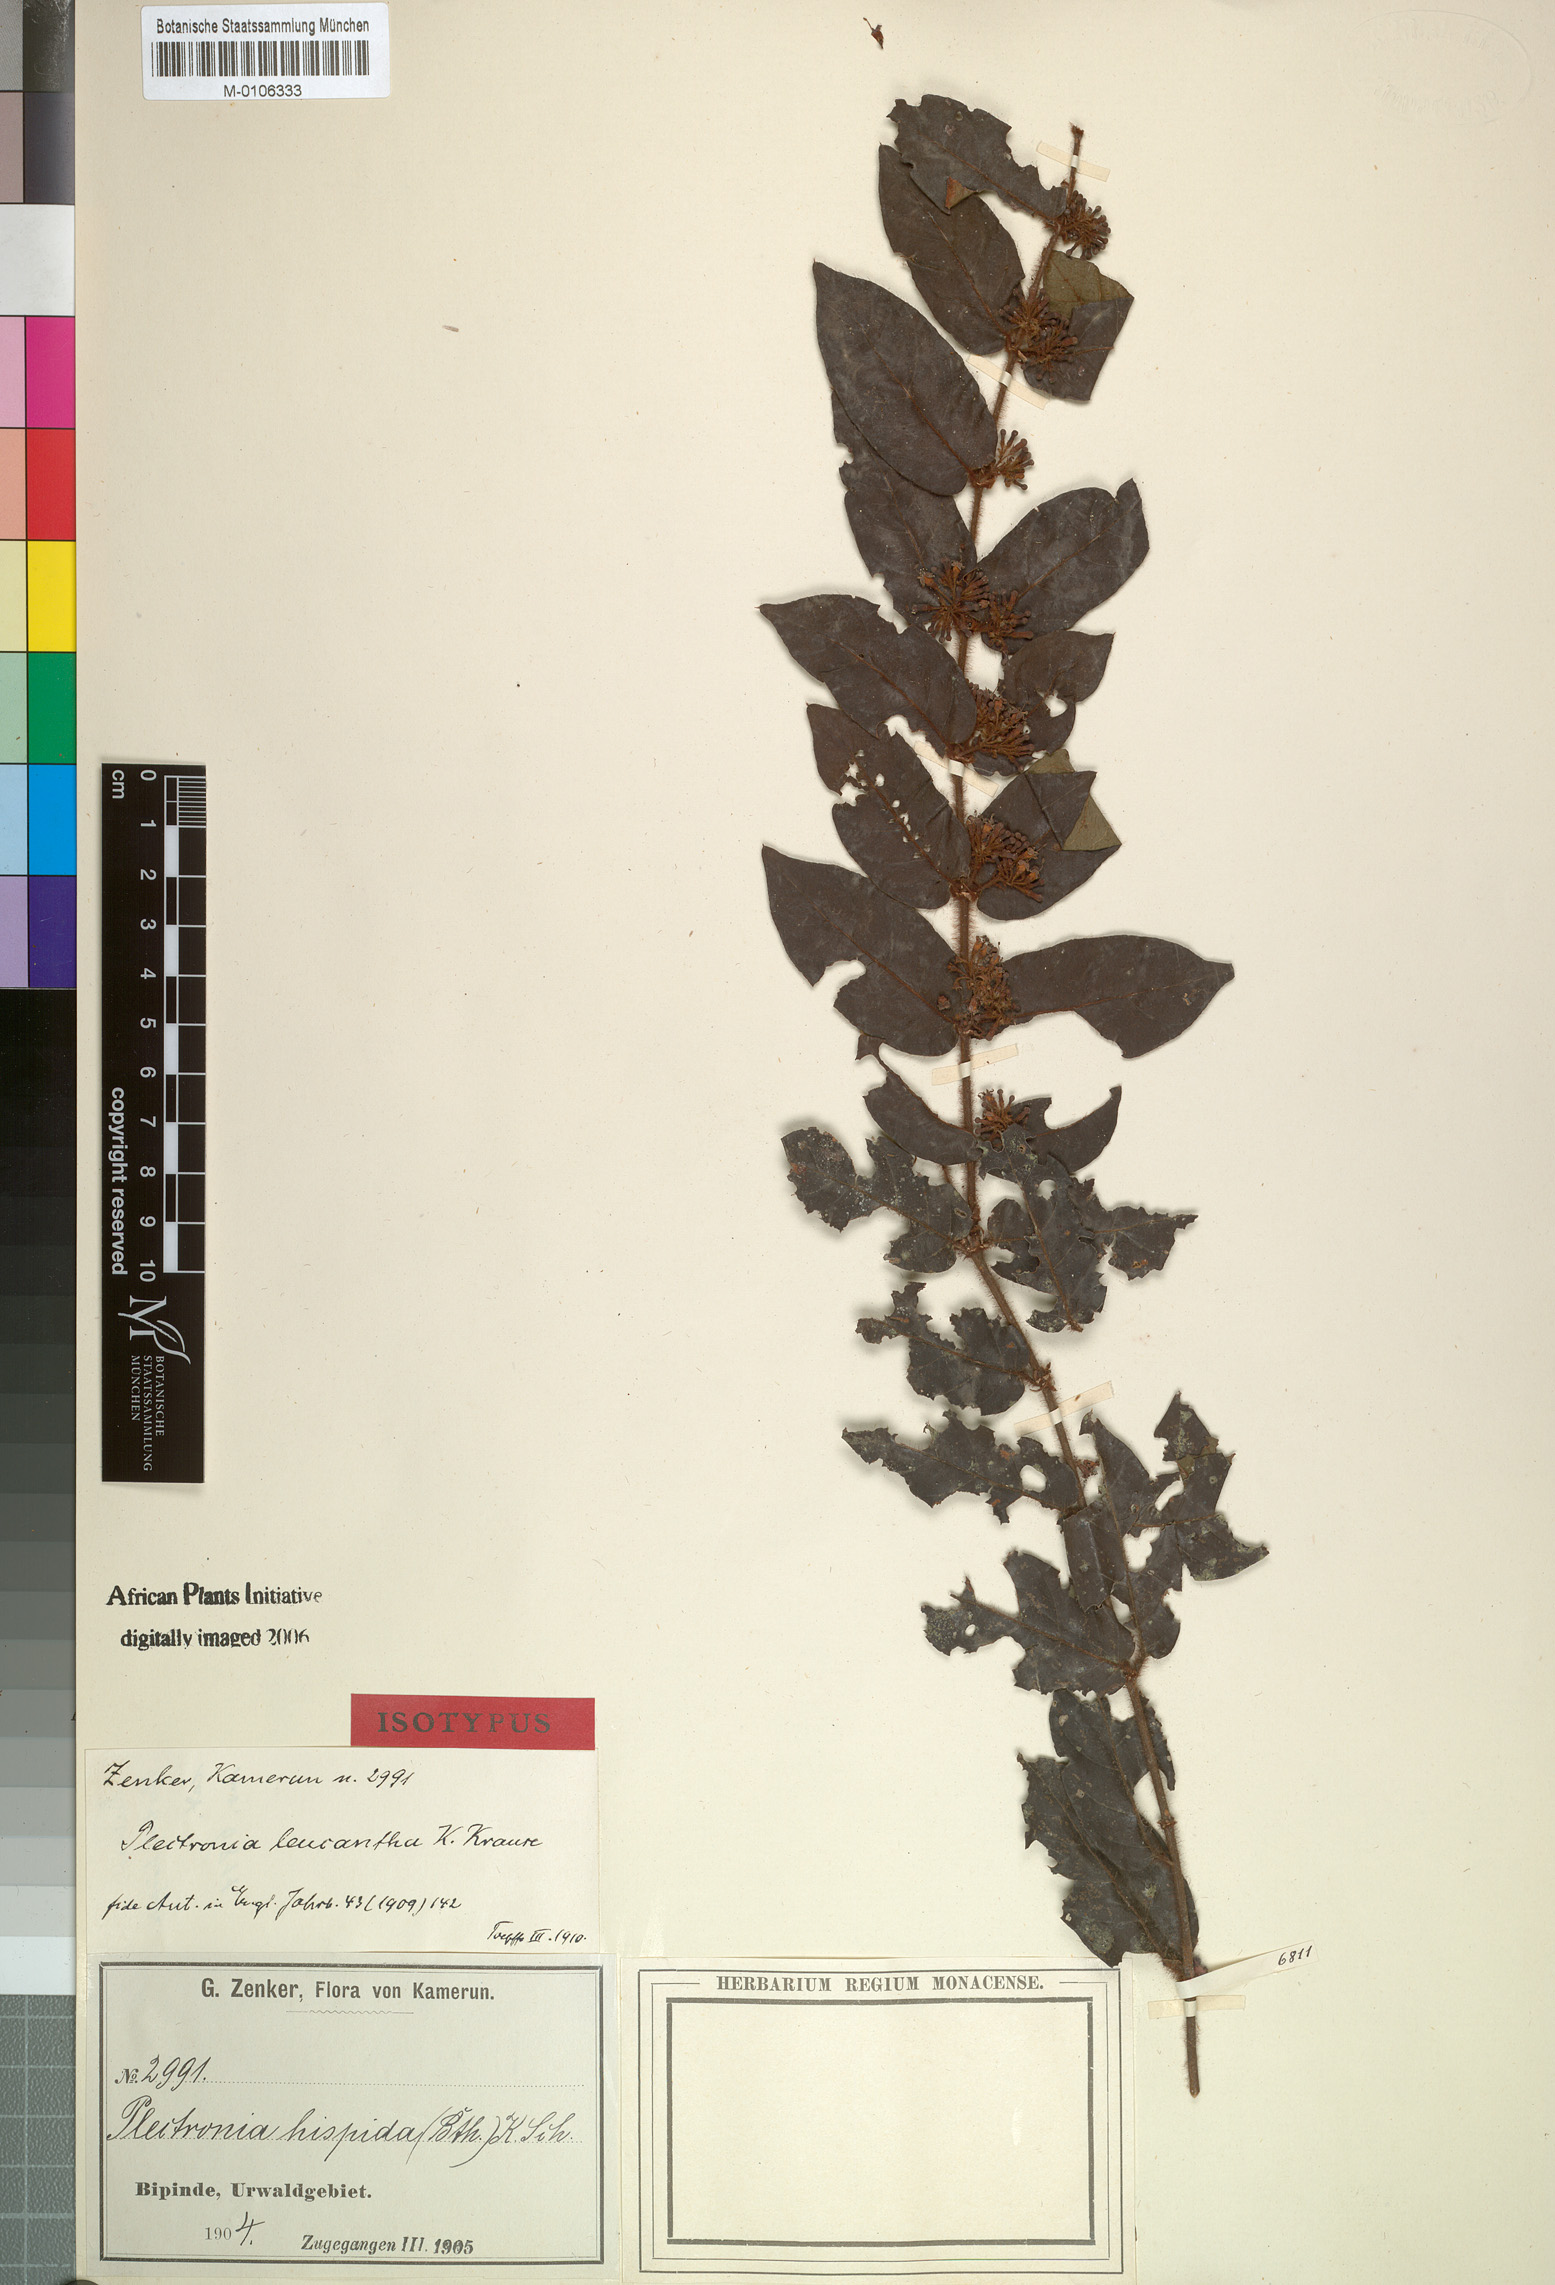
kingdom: Plantae
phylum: Tracheophyta
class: Magnoliopsida
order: Gentianales
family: Rubiaceae
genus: Keetia
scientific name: Keetia leucantha
